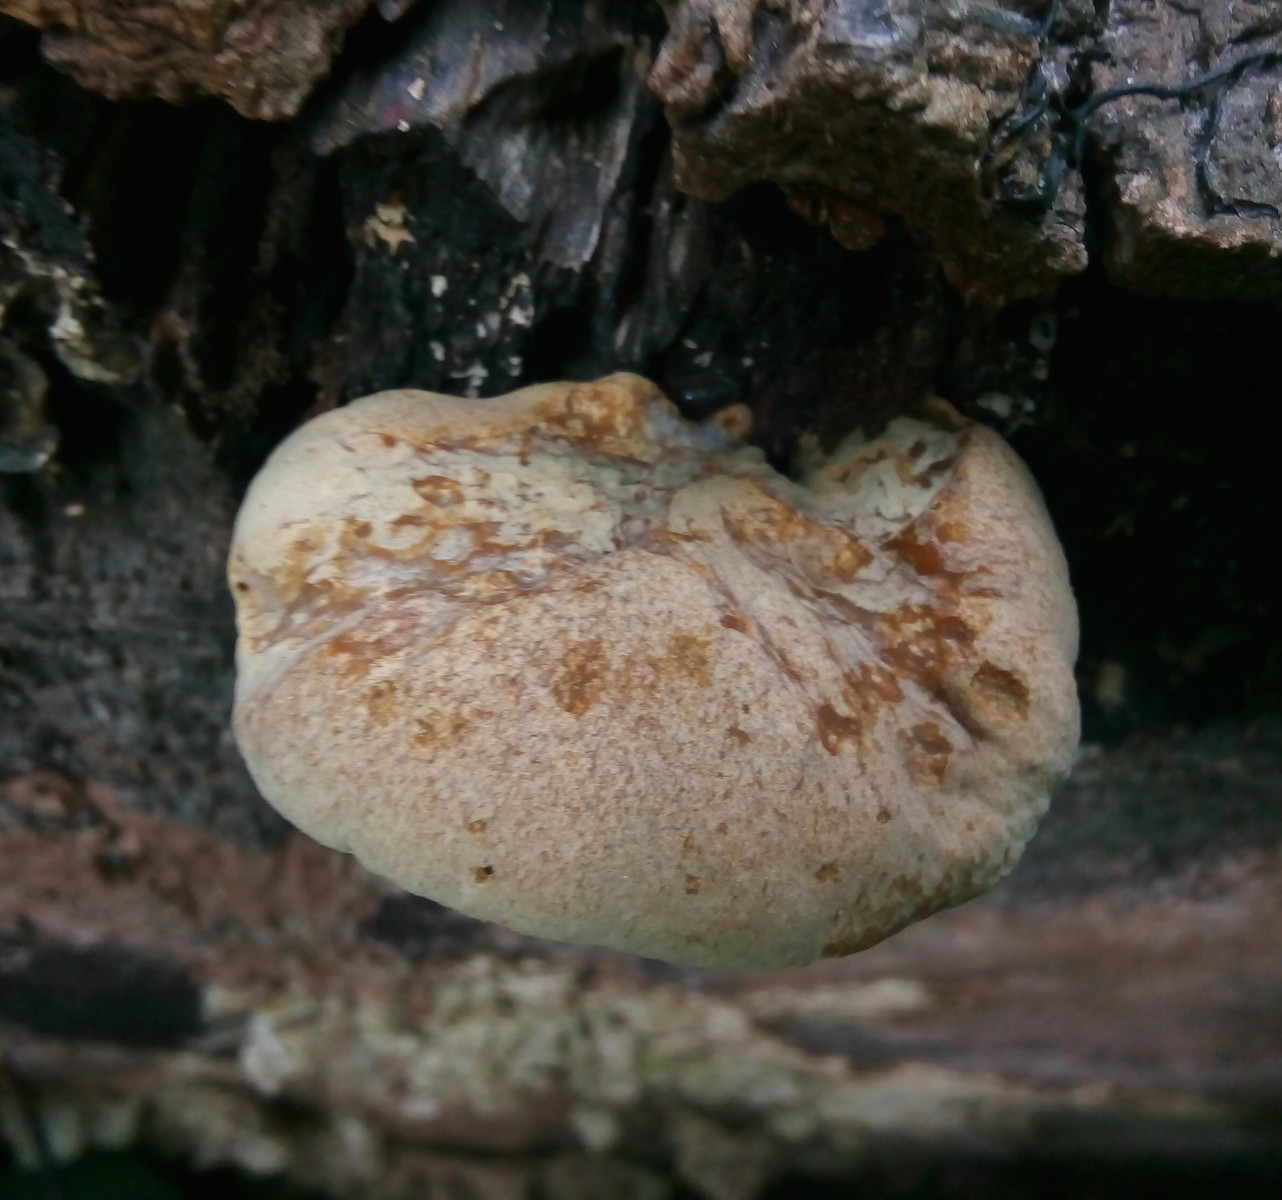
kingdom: Fungi
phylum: Basidiomycota
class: Agaricomycetes
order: Polyporales
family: Polyporaceae
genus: Cerioporus
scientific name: Cerioporus varius
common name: foranderlig stilkporesvamp
